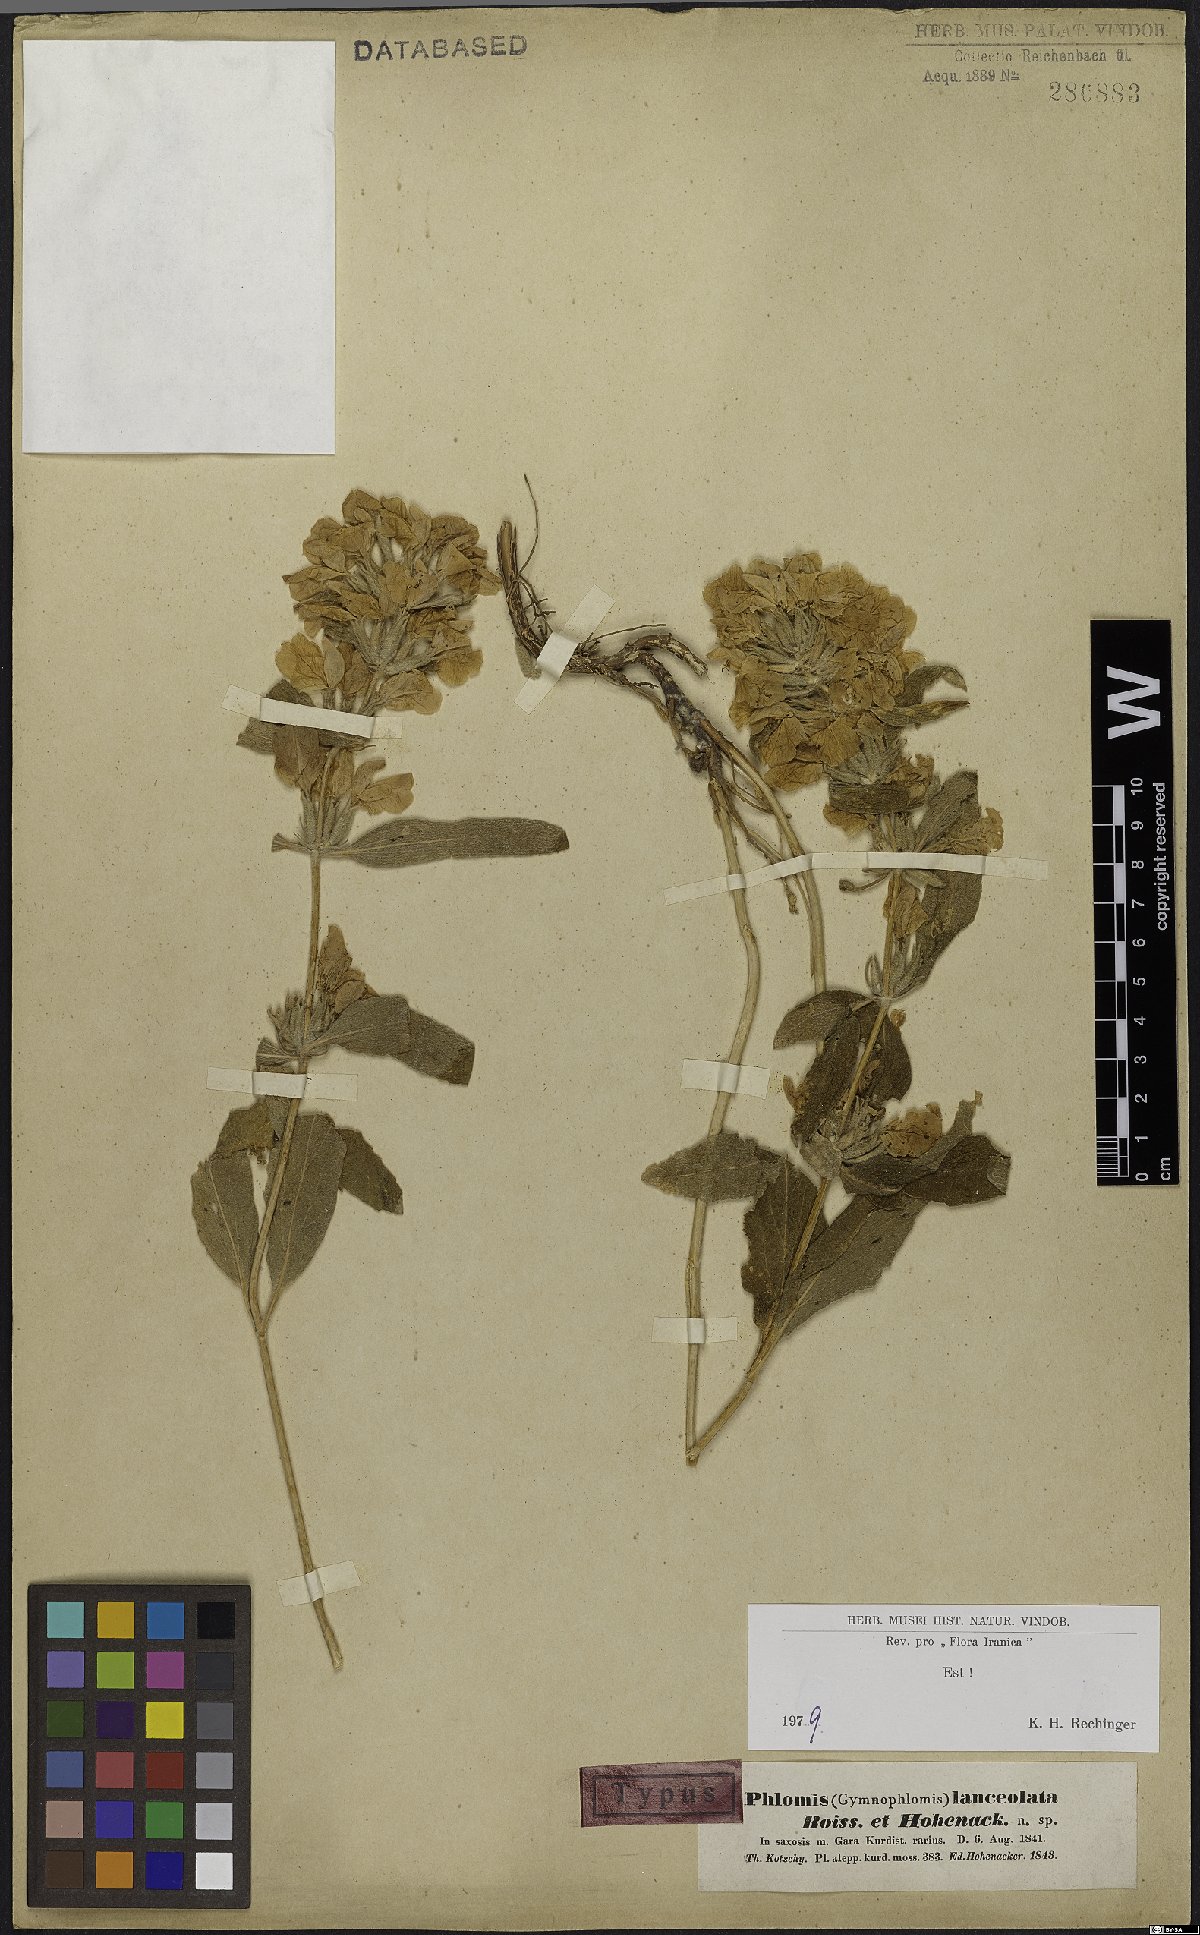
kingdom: Plantae
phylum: Tracheophyta
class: Magnoliopsida
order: Lamiales
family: Lamiaceae
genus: Phlomis
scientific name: Phlomis lanceolata
